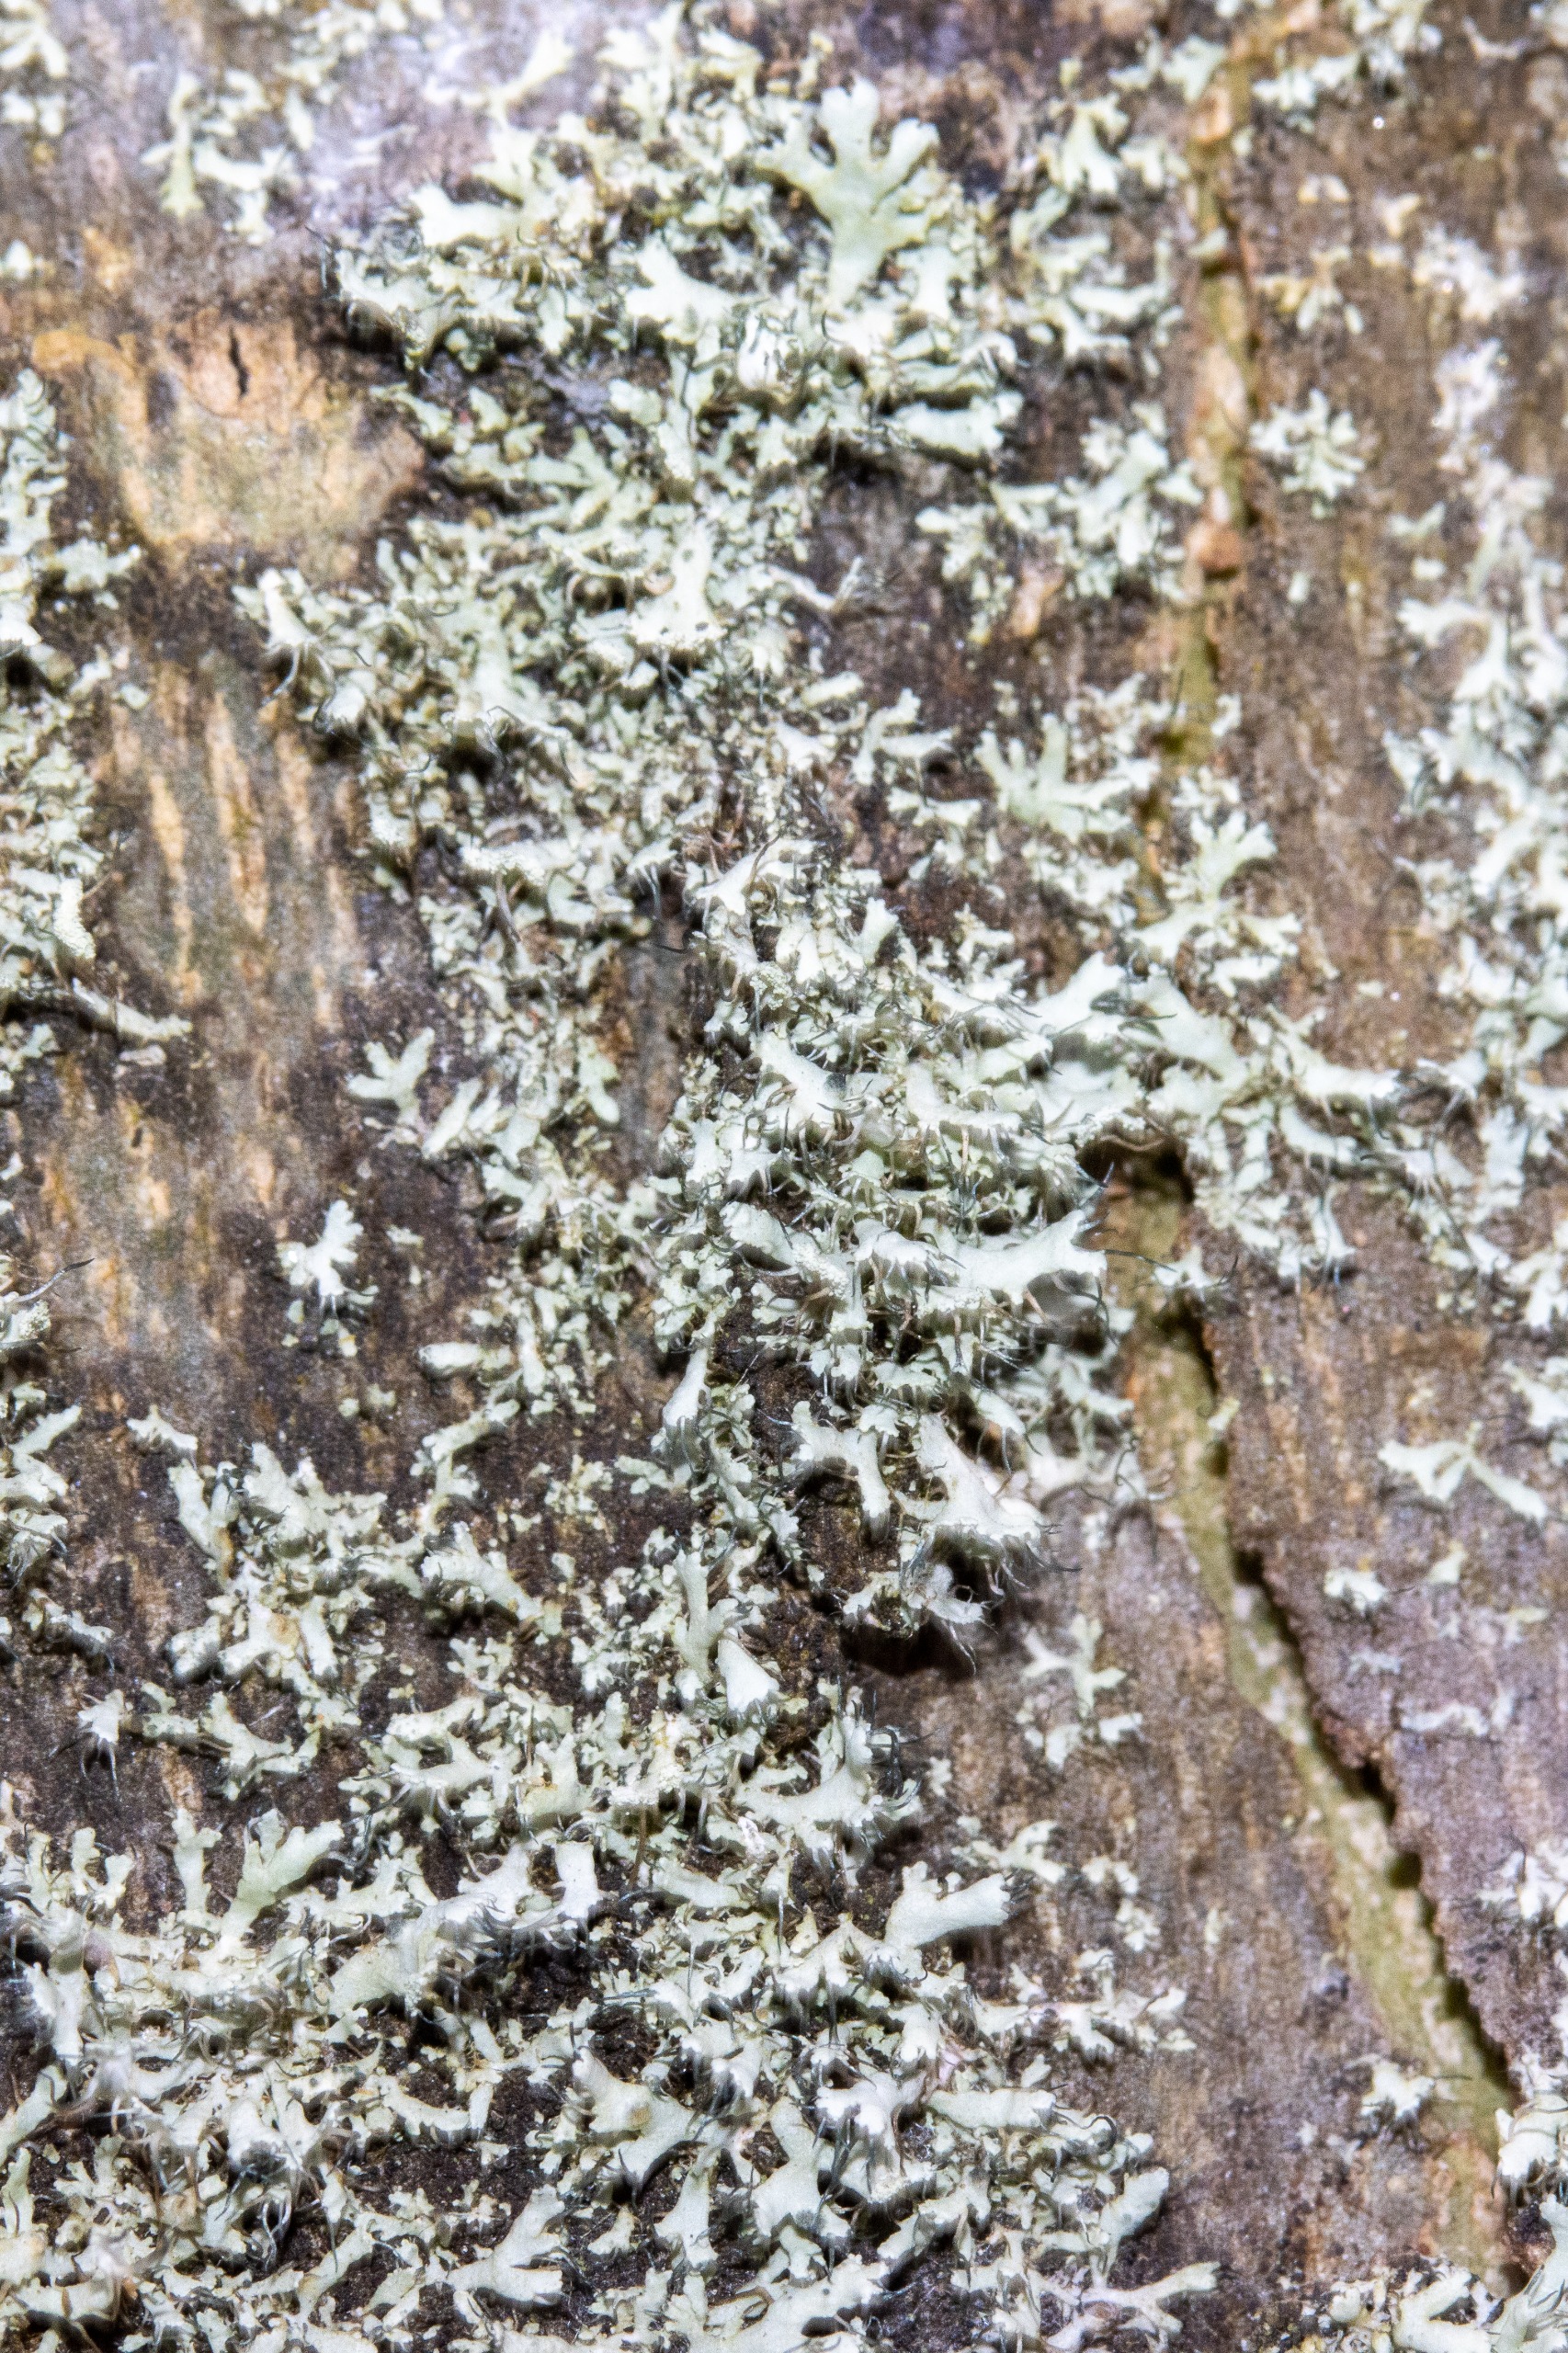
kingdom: Fungi
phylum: Ascomycota
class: Lecanoromycetes
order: Caliciales
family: Physciaceae
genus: Physcia
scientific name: Physcia tenella
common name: Spæd rosetlav
